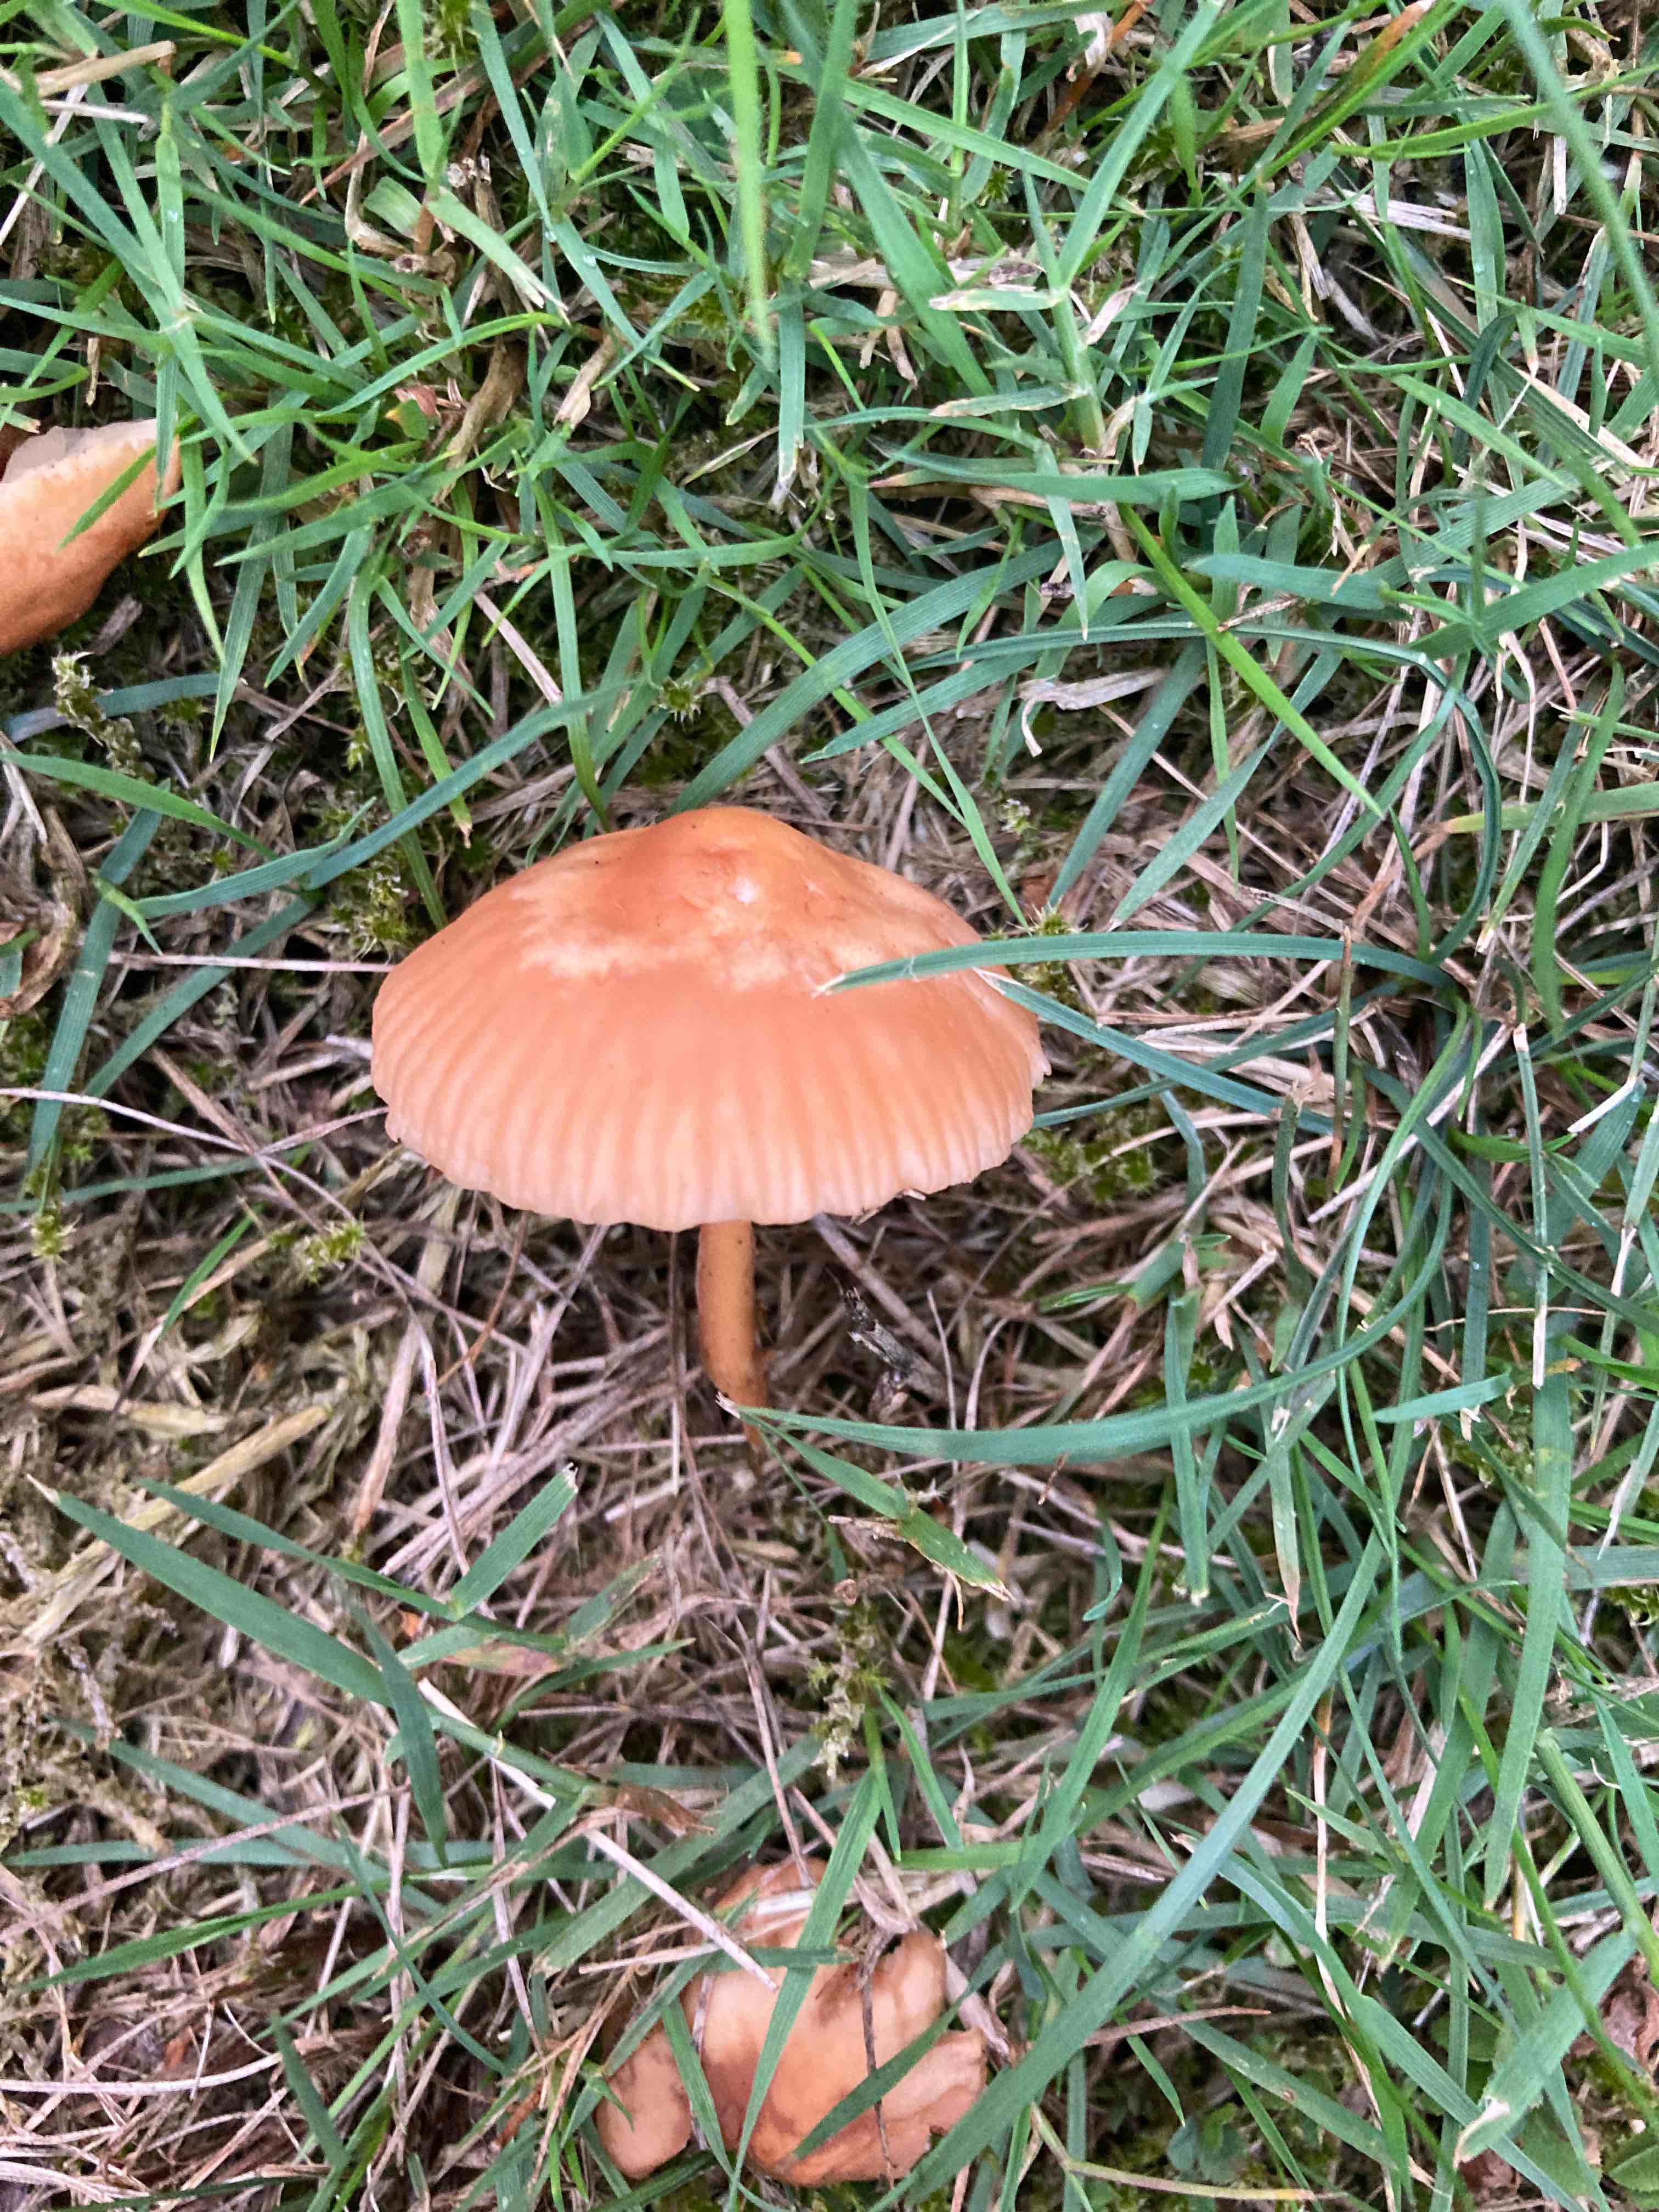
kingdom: Fungi
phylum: Basidiomycota
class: Agaricomycetes
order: Agaricales
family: Marasmiaceae
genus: Marasmius
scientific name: Marasmius oreades
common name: elledans-bruskhat
